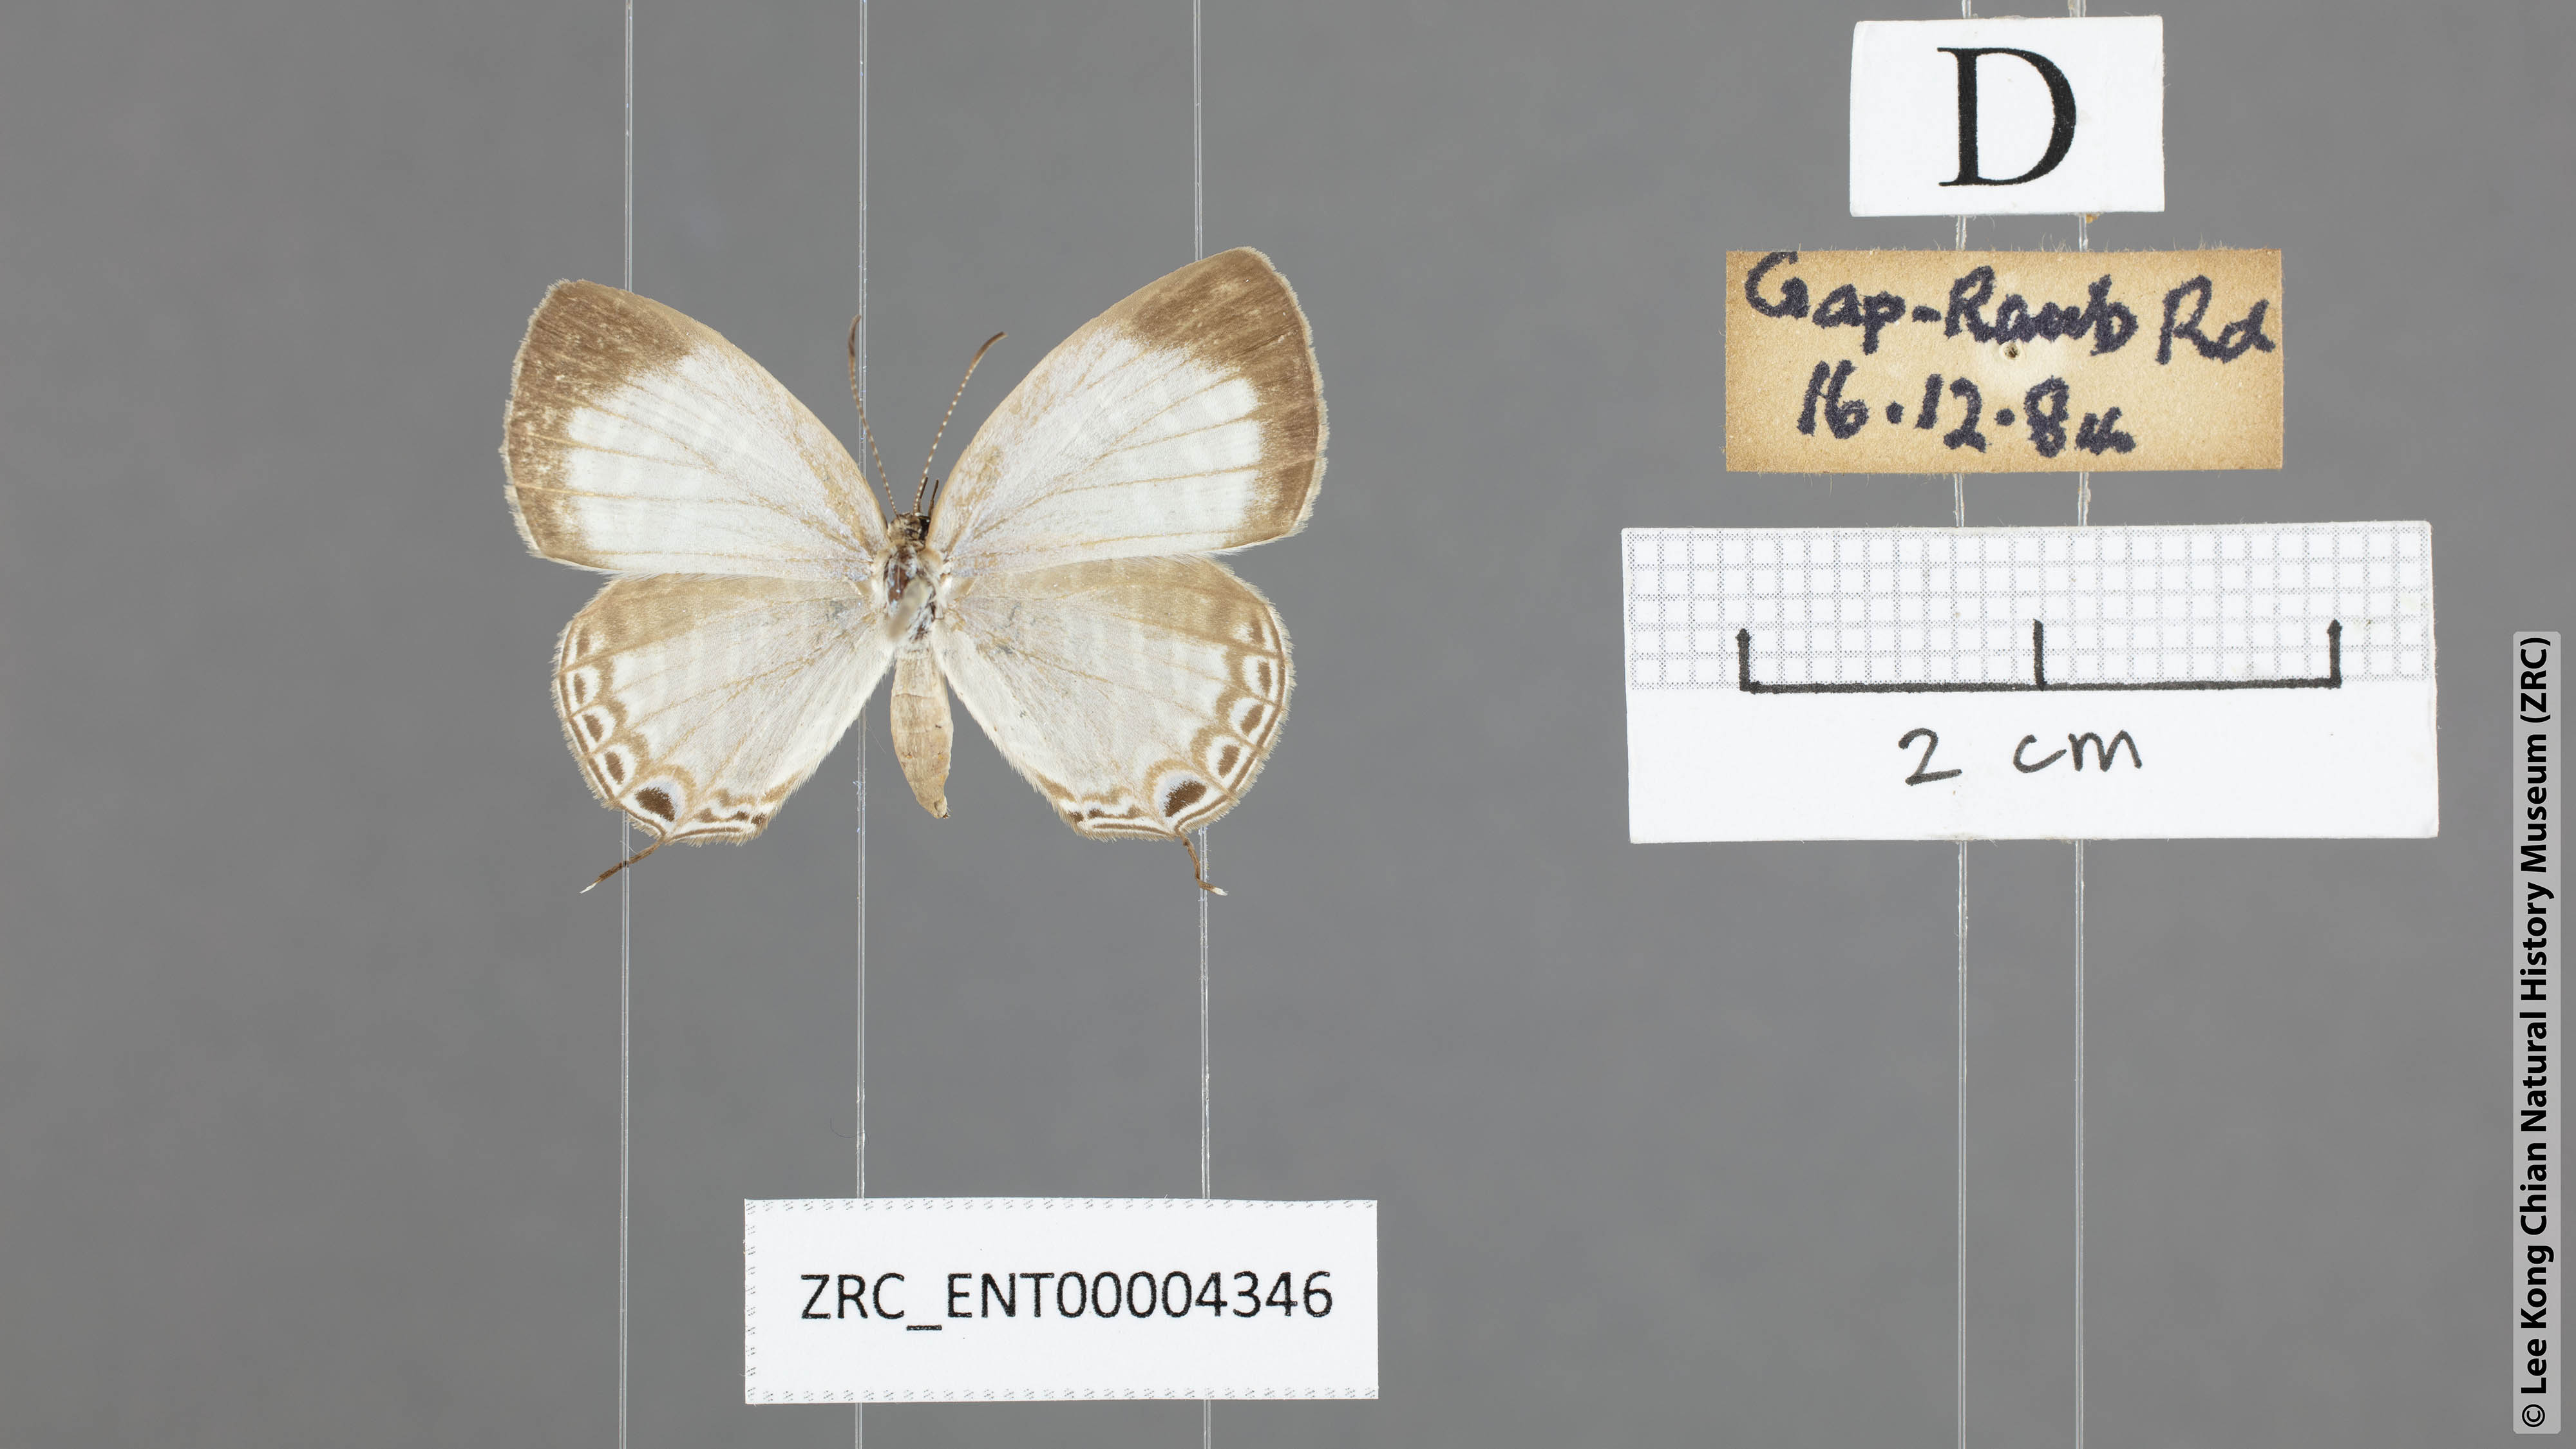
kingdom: Animalia
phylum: Arthropoda
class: Insecta
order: Lepidoptera
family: Lycaenidae
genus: Jamides
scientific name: Jamides pura
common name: White cerulean
